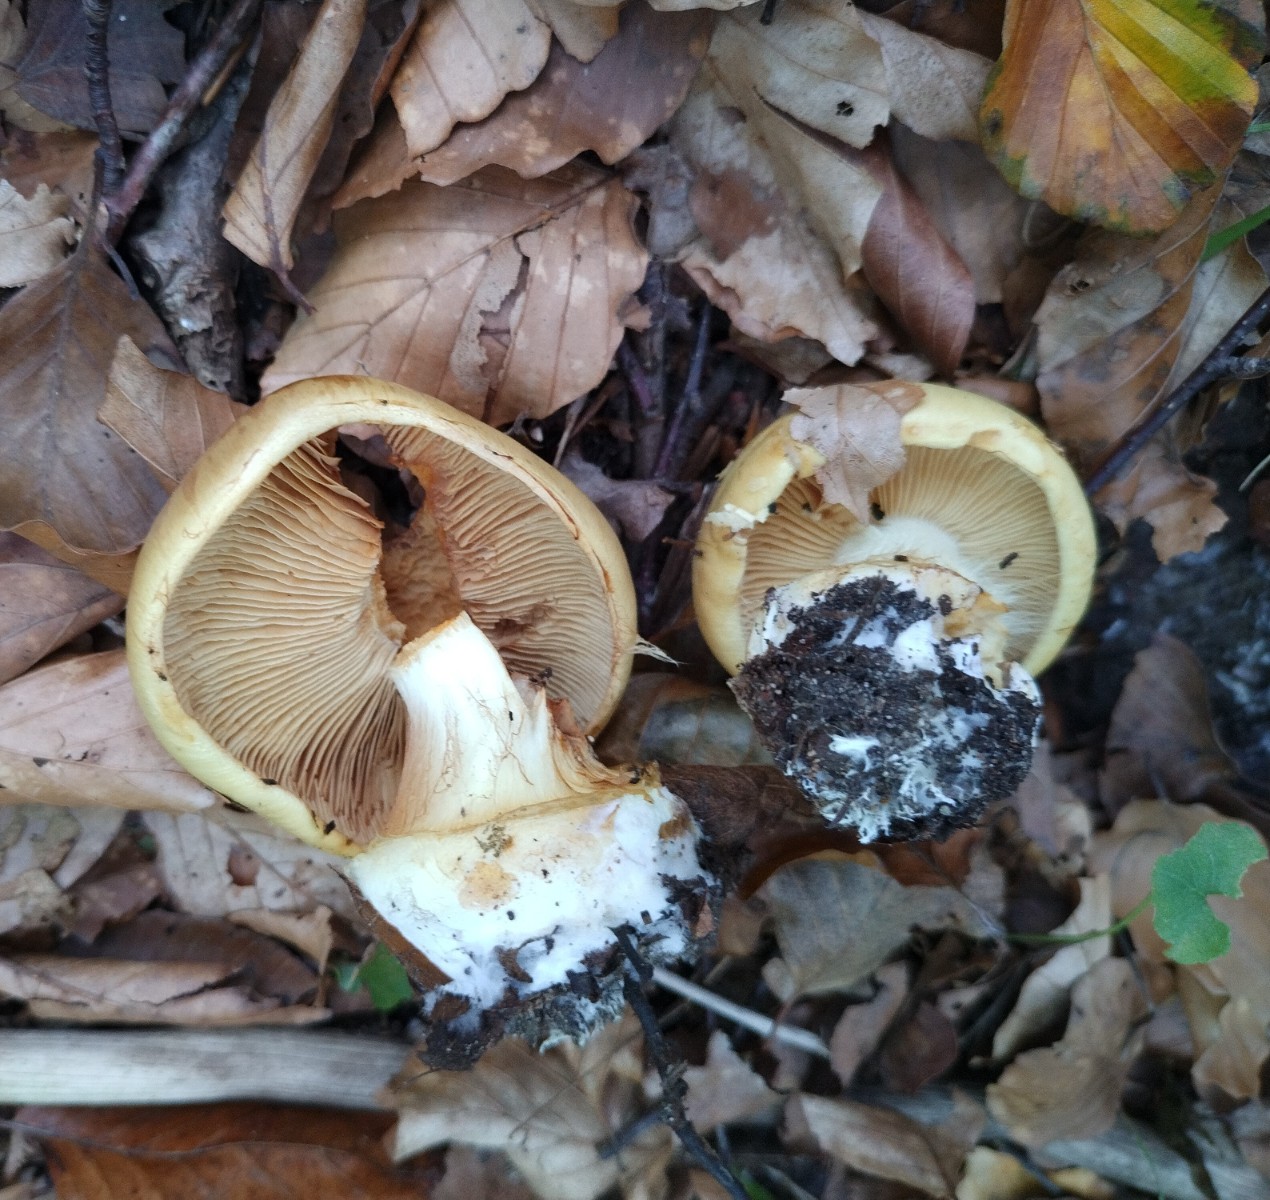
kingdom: Fungi
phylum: Basidiomycota
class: Agaricomycetes
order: Agaricales
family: Cortinariaceae
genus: Calonarius
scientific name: Calonarius humolens
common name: radise-slørhat
